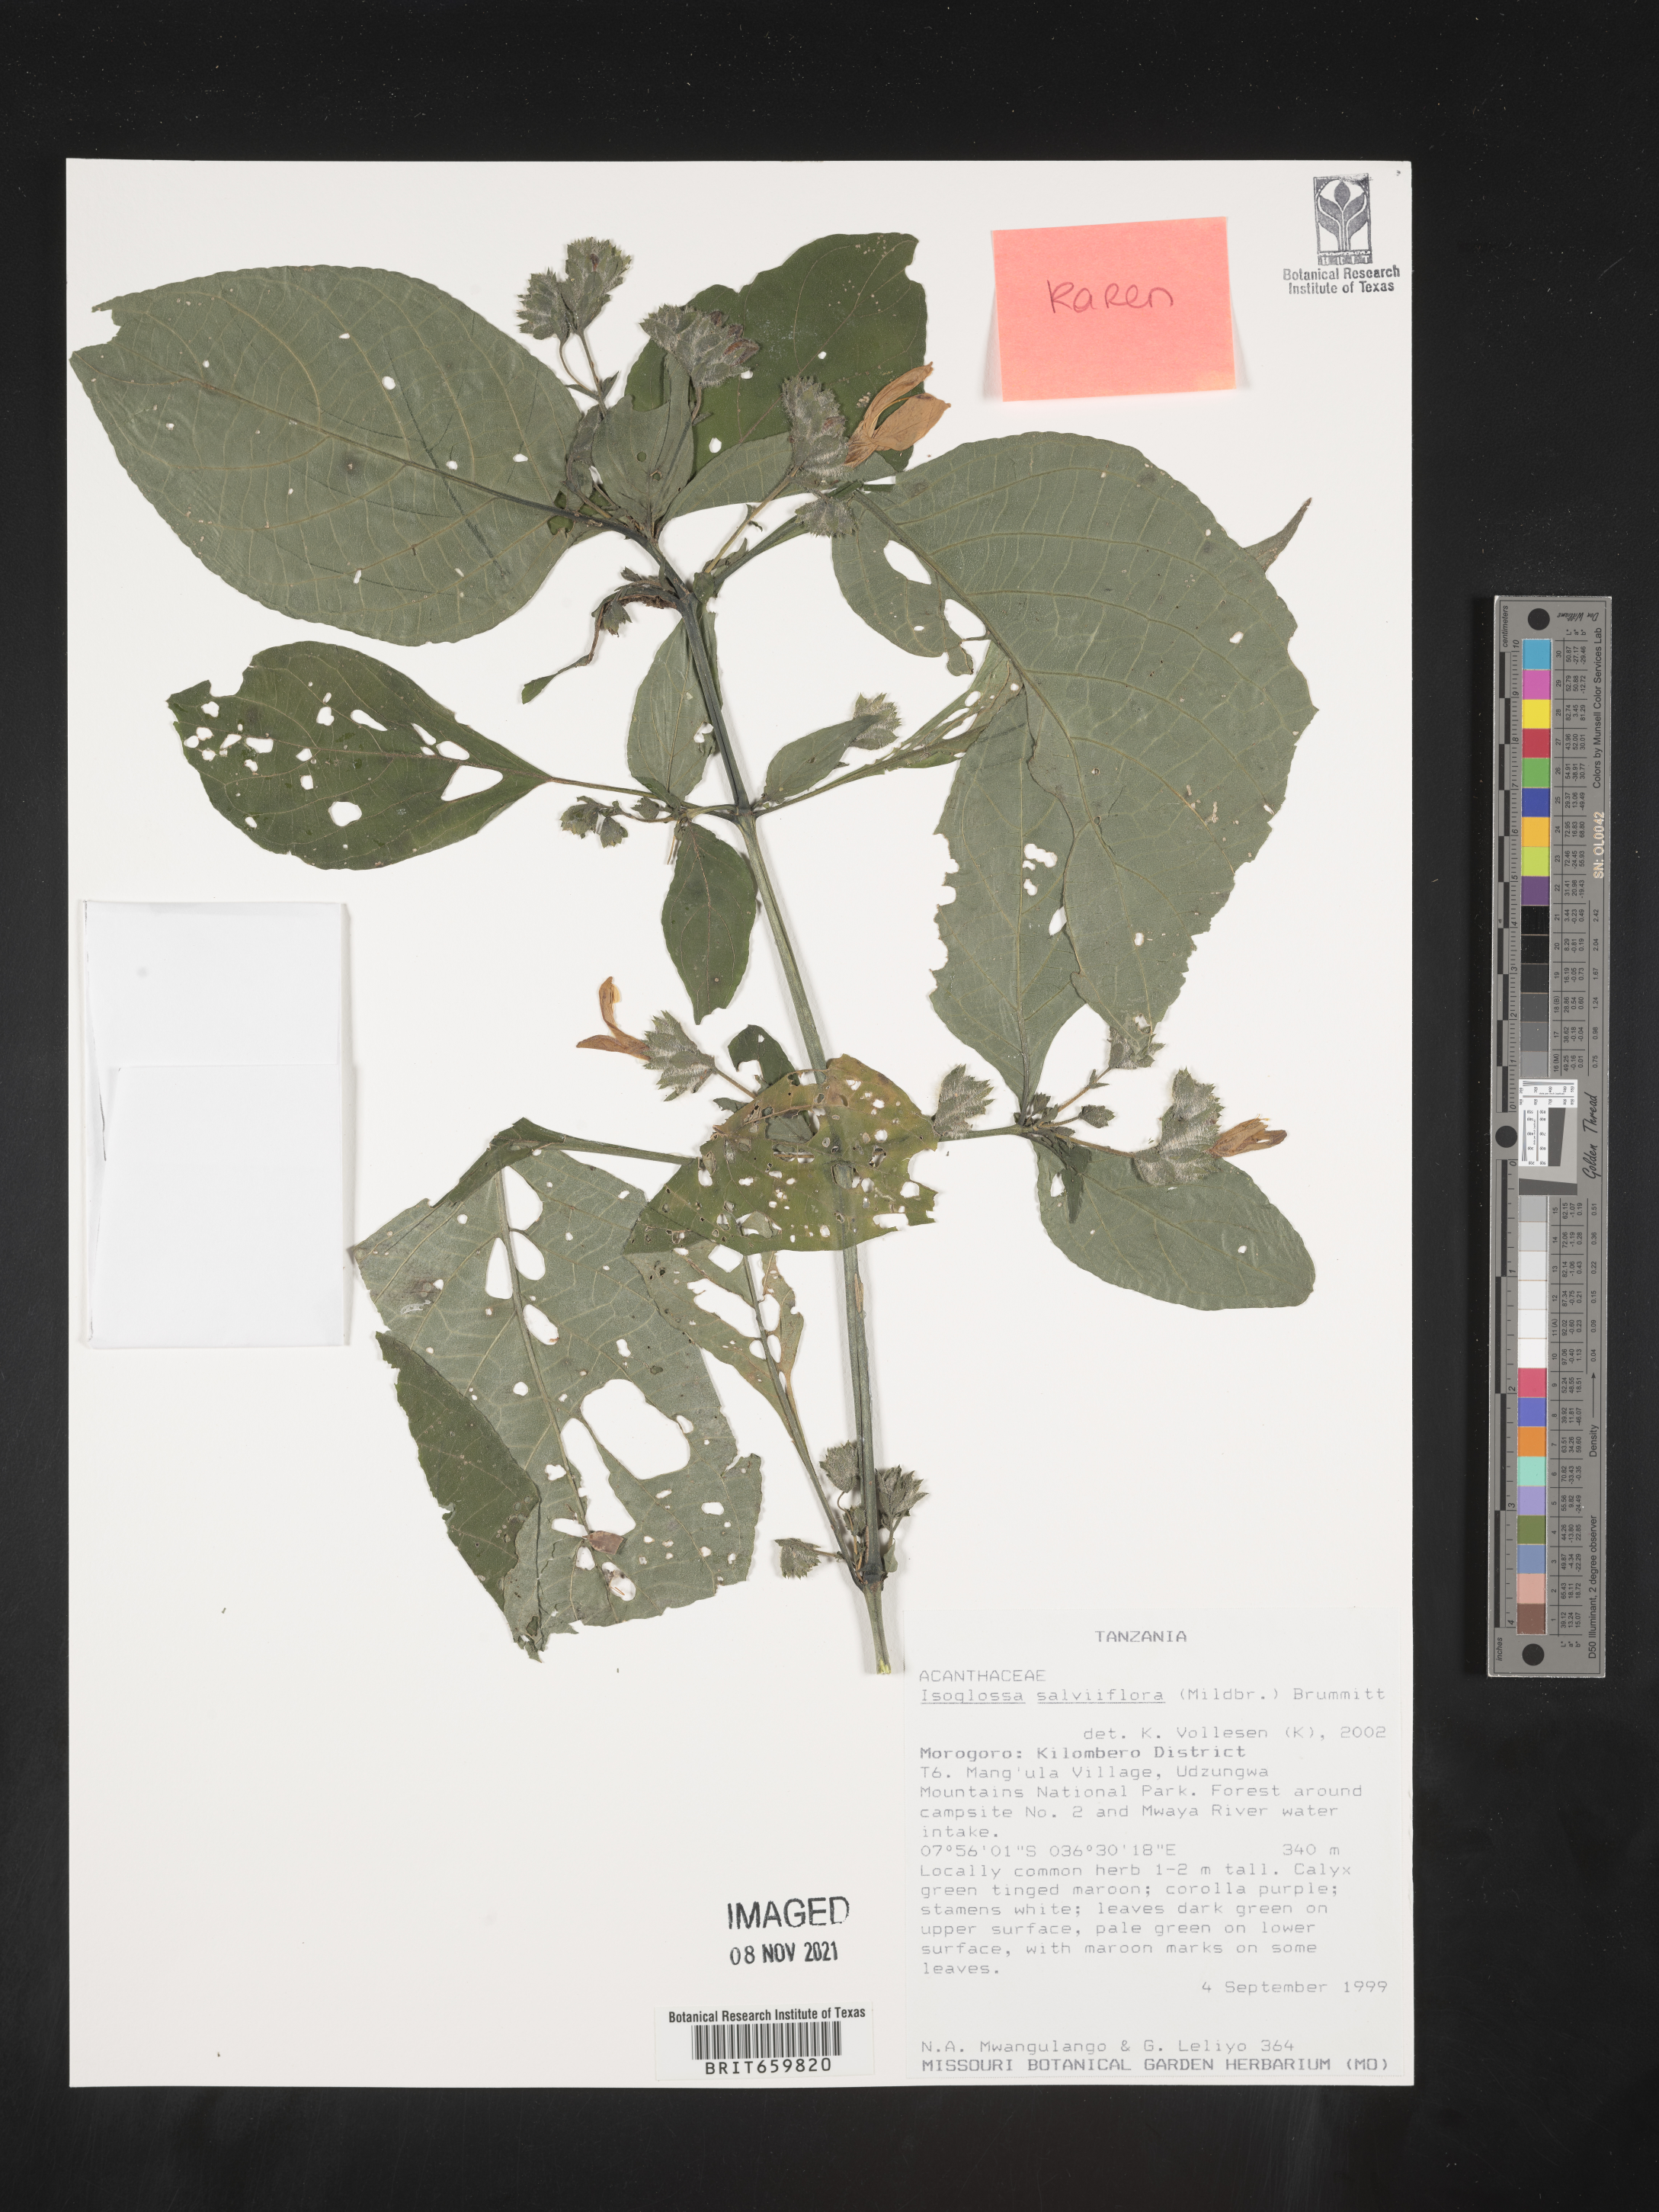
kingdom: Plantae
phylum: Tracheophyta
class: Magnoliopsida
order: Lamiales
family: Acanthaceae
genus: Isoglossa
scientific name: Isoglossa floribunda
